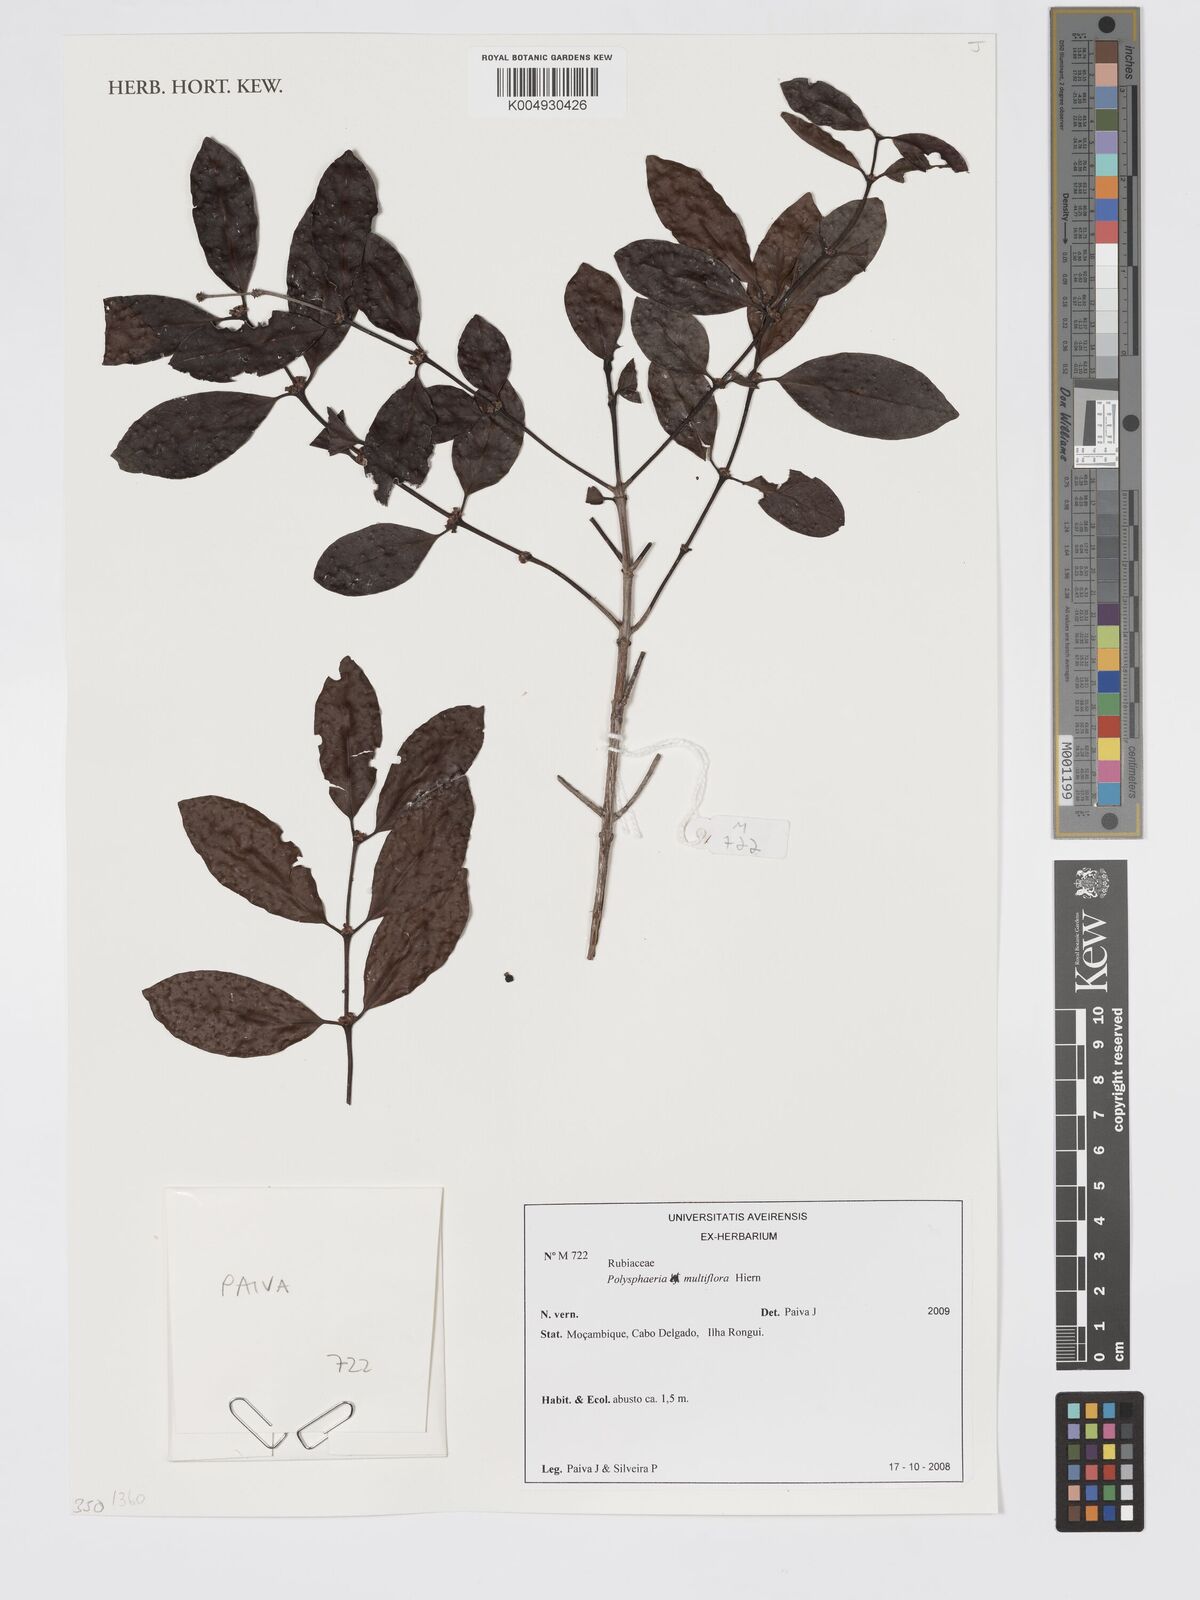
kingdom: Plantae
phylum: Tracheophyta
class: Magnoliopsida
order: Gentianales
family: Rubiaceae
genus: Polysphaeria
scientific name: Polysphaeria multiflora
